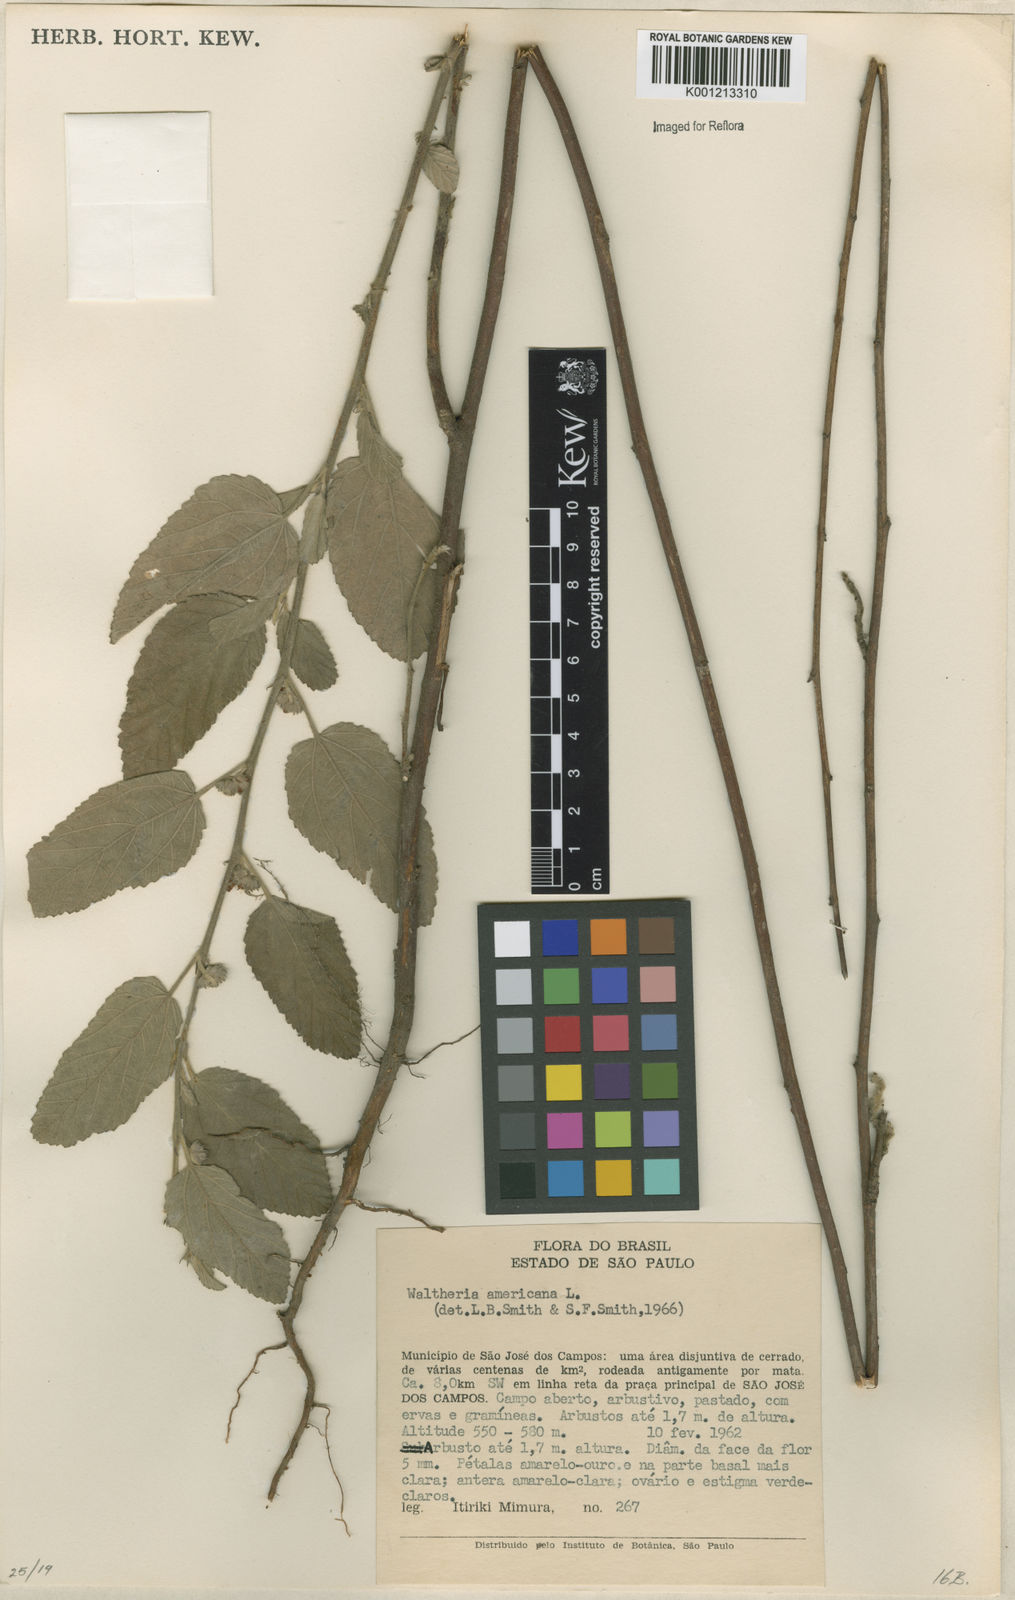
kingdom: Plantae
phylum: Tracheophyta
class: Magnoliopsida
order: Malvales
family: Malvaceae
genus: Waltheria
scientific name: Waltheria indica
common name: Leather-coat
